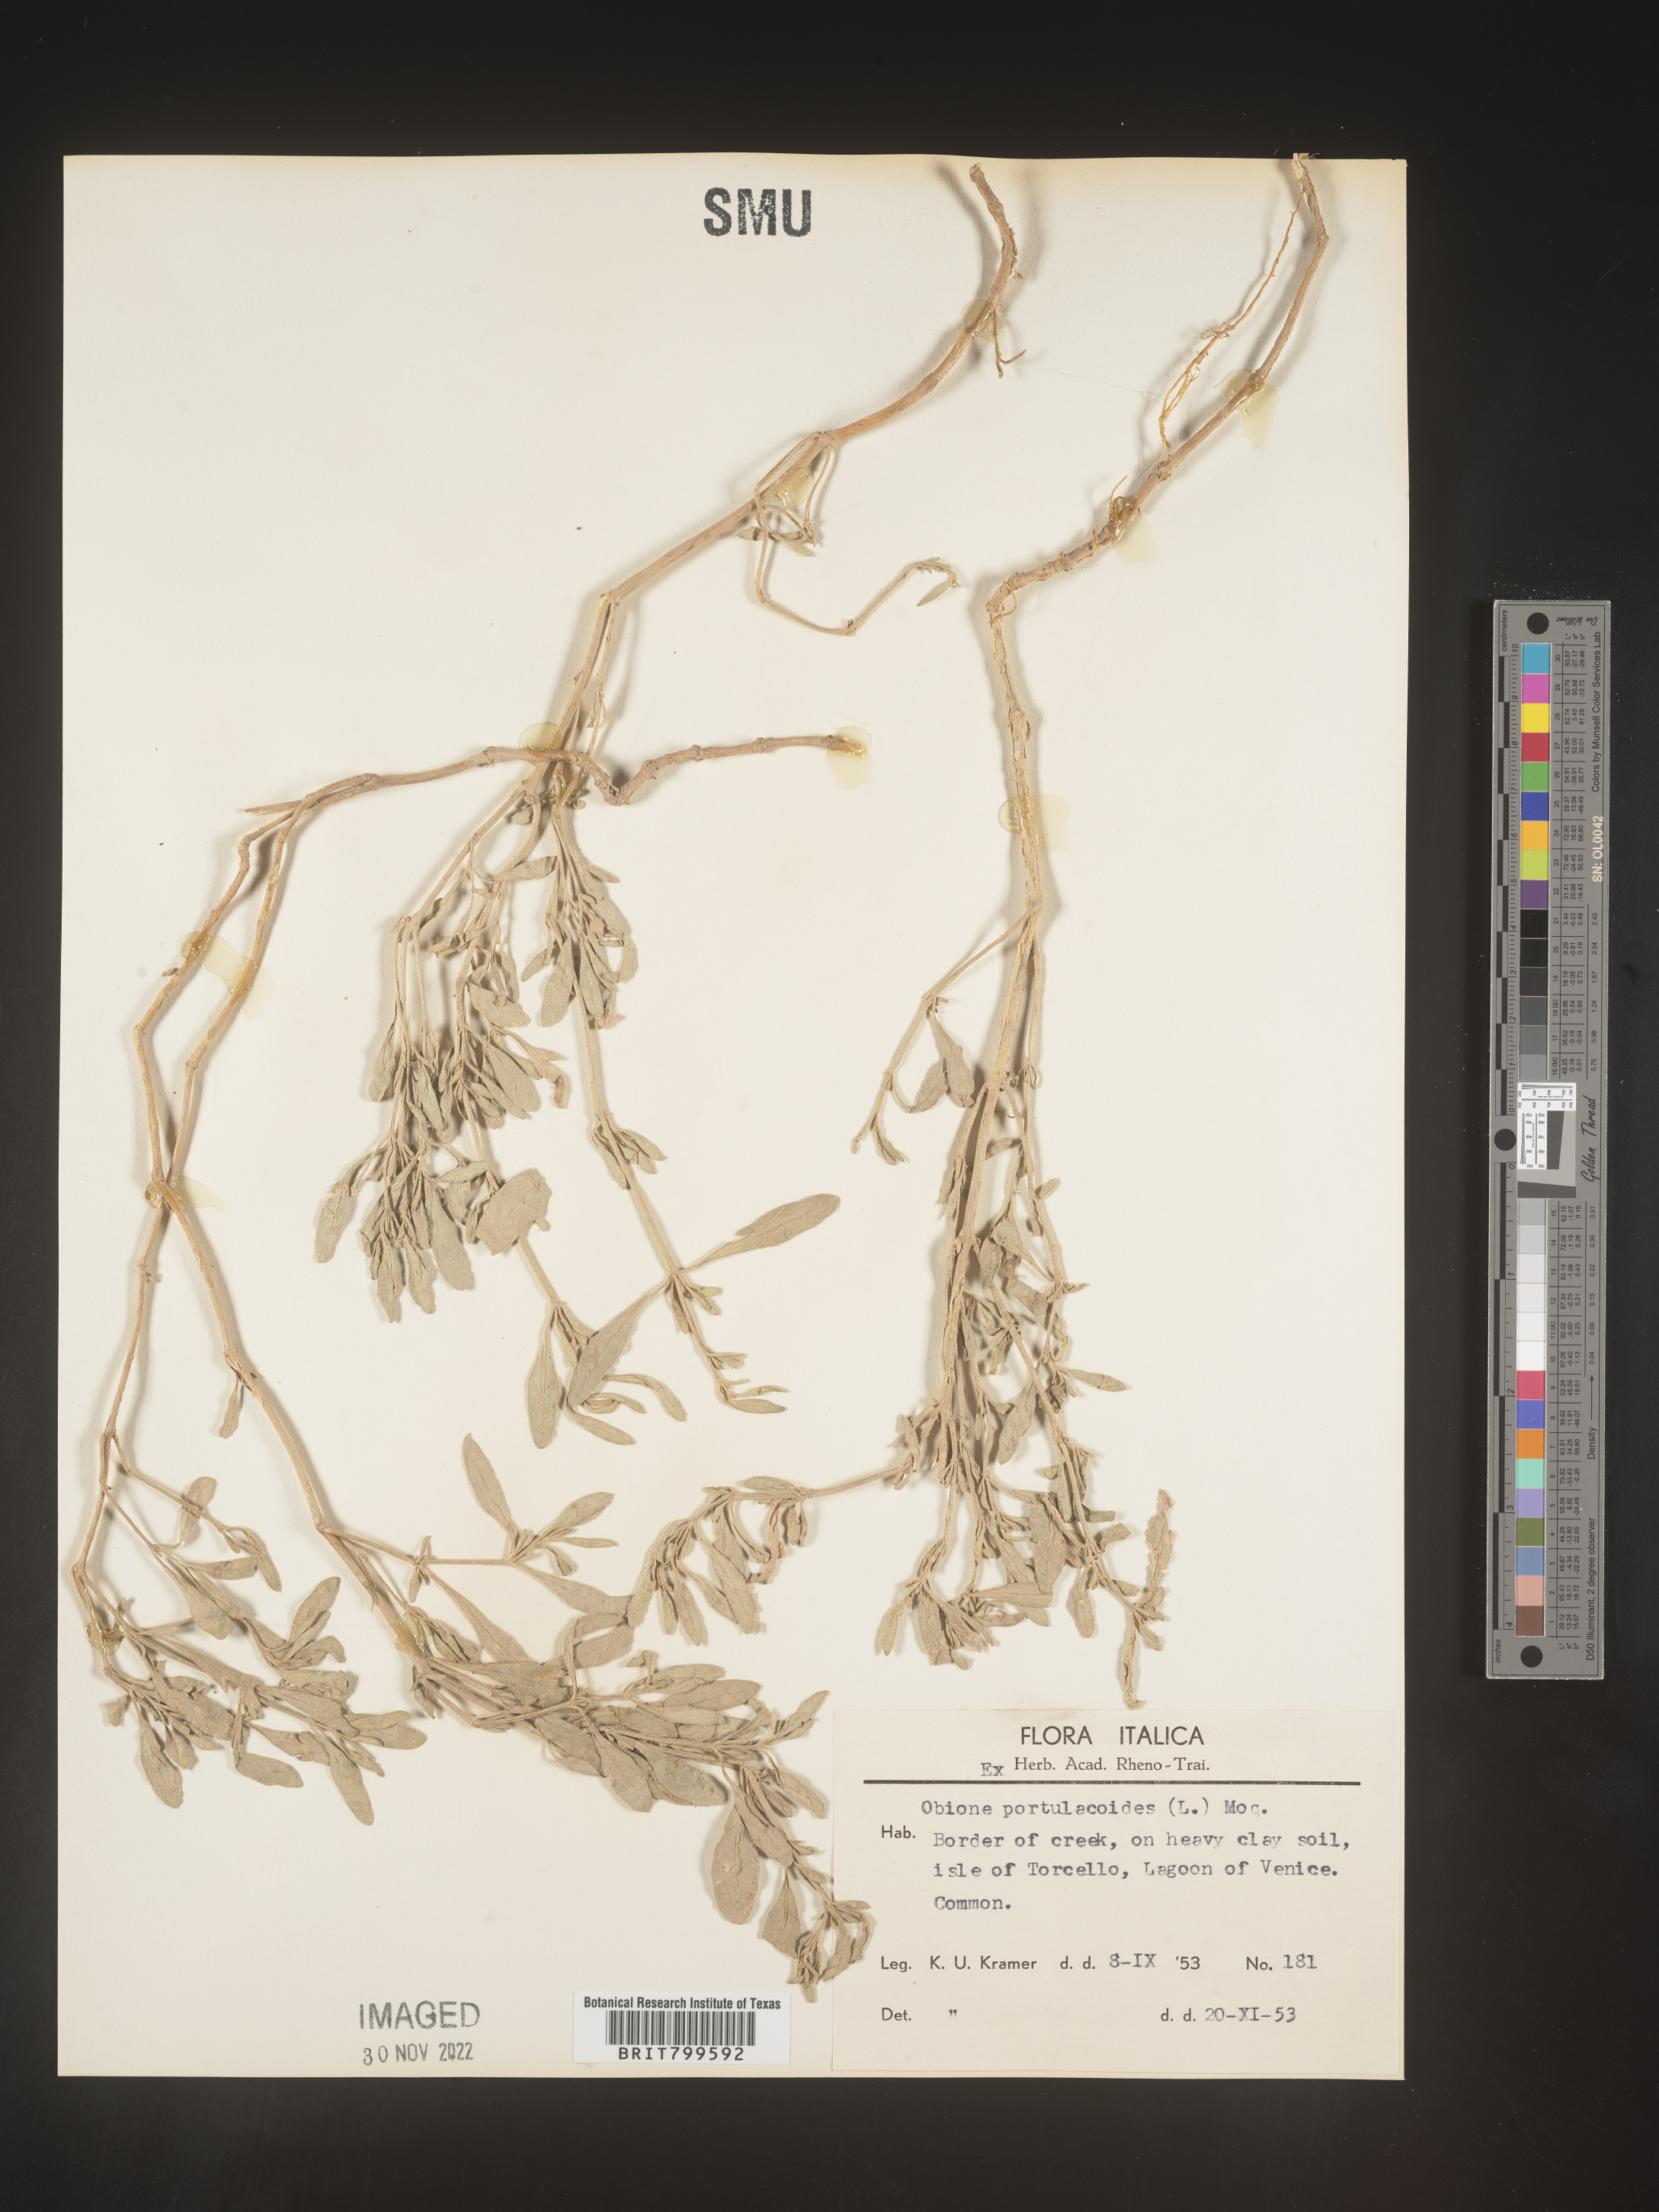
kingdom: Plantae
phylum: Tracheophyta
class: Magnoliopsida
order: Caryophyllales
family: Amaranthaceae
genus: Atriplex
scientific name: Atriplex Obione parvifolia
